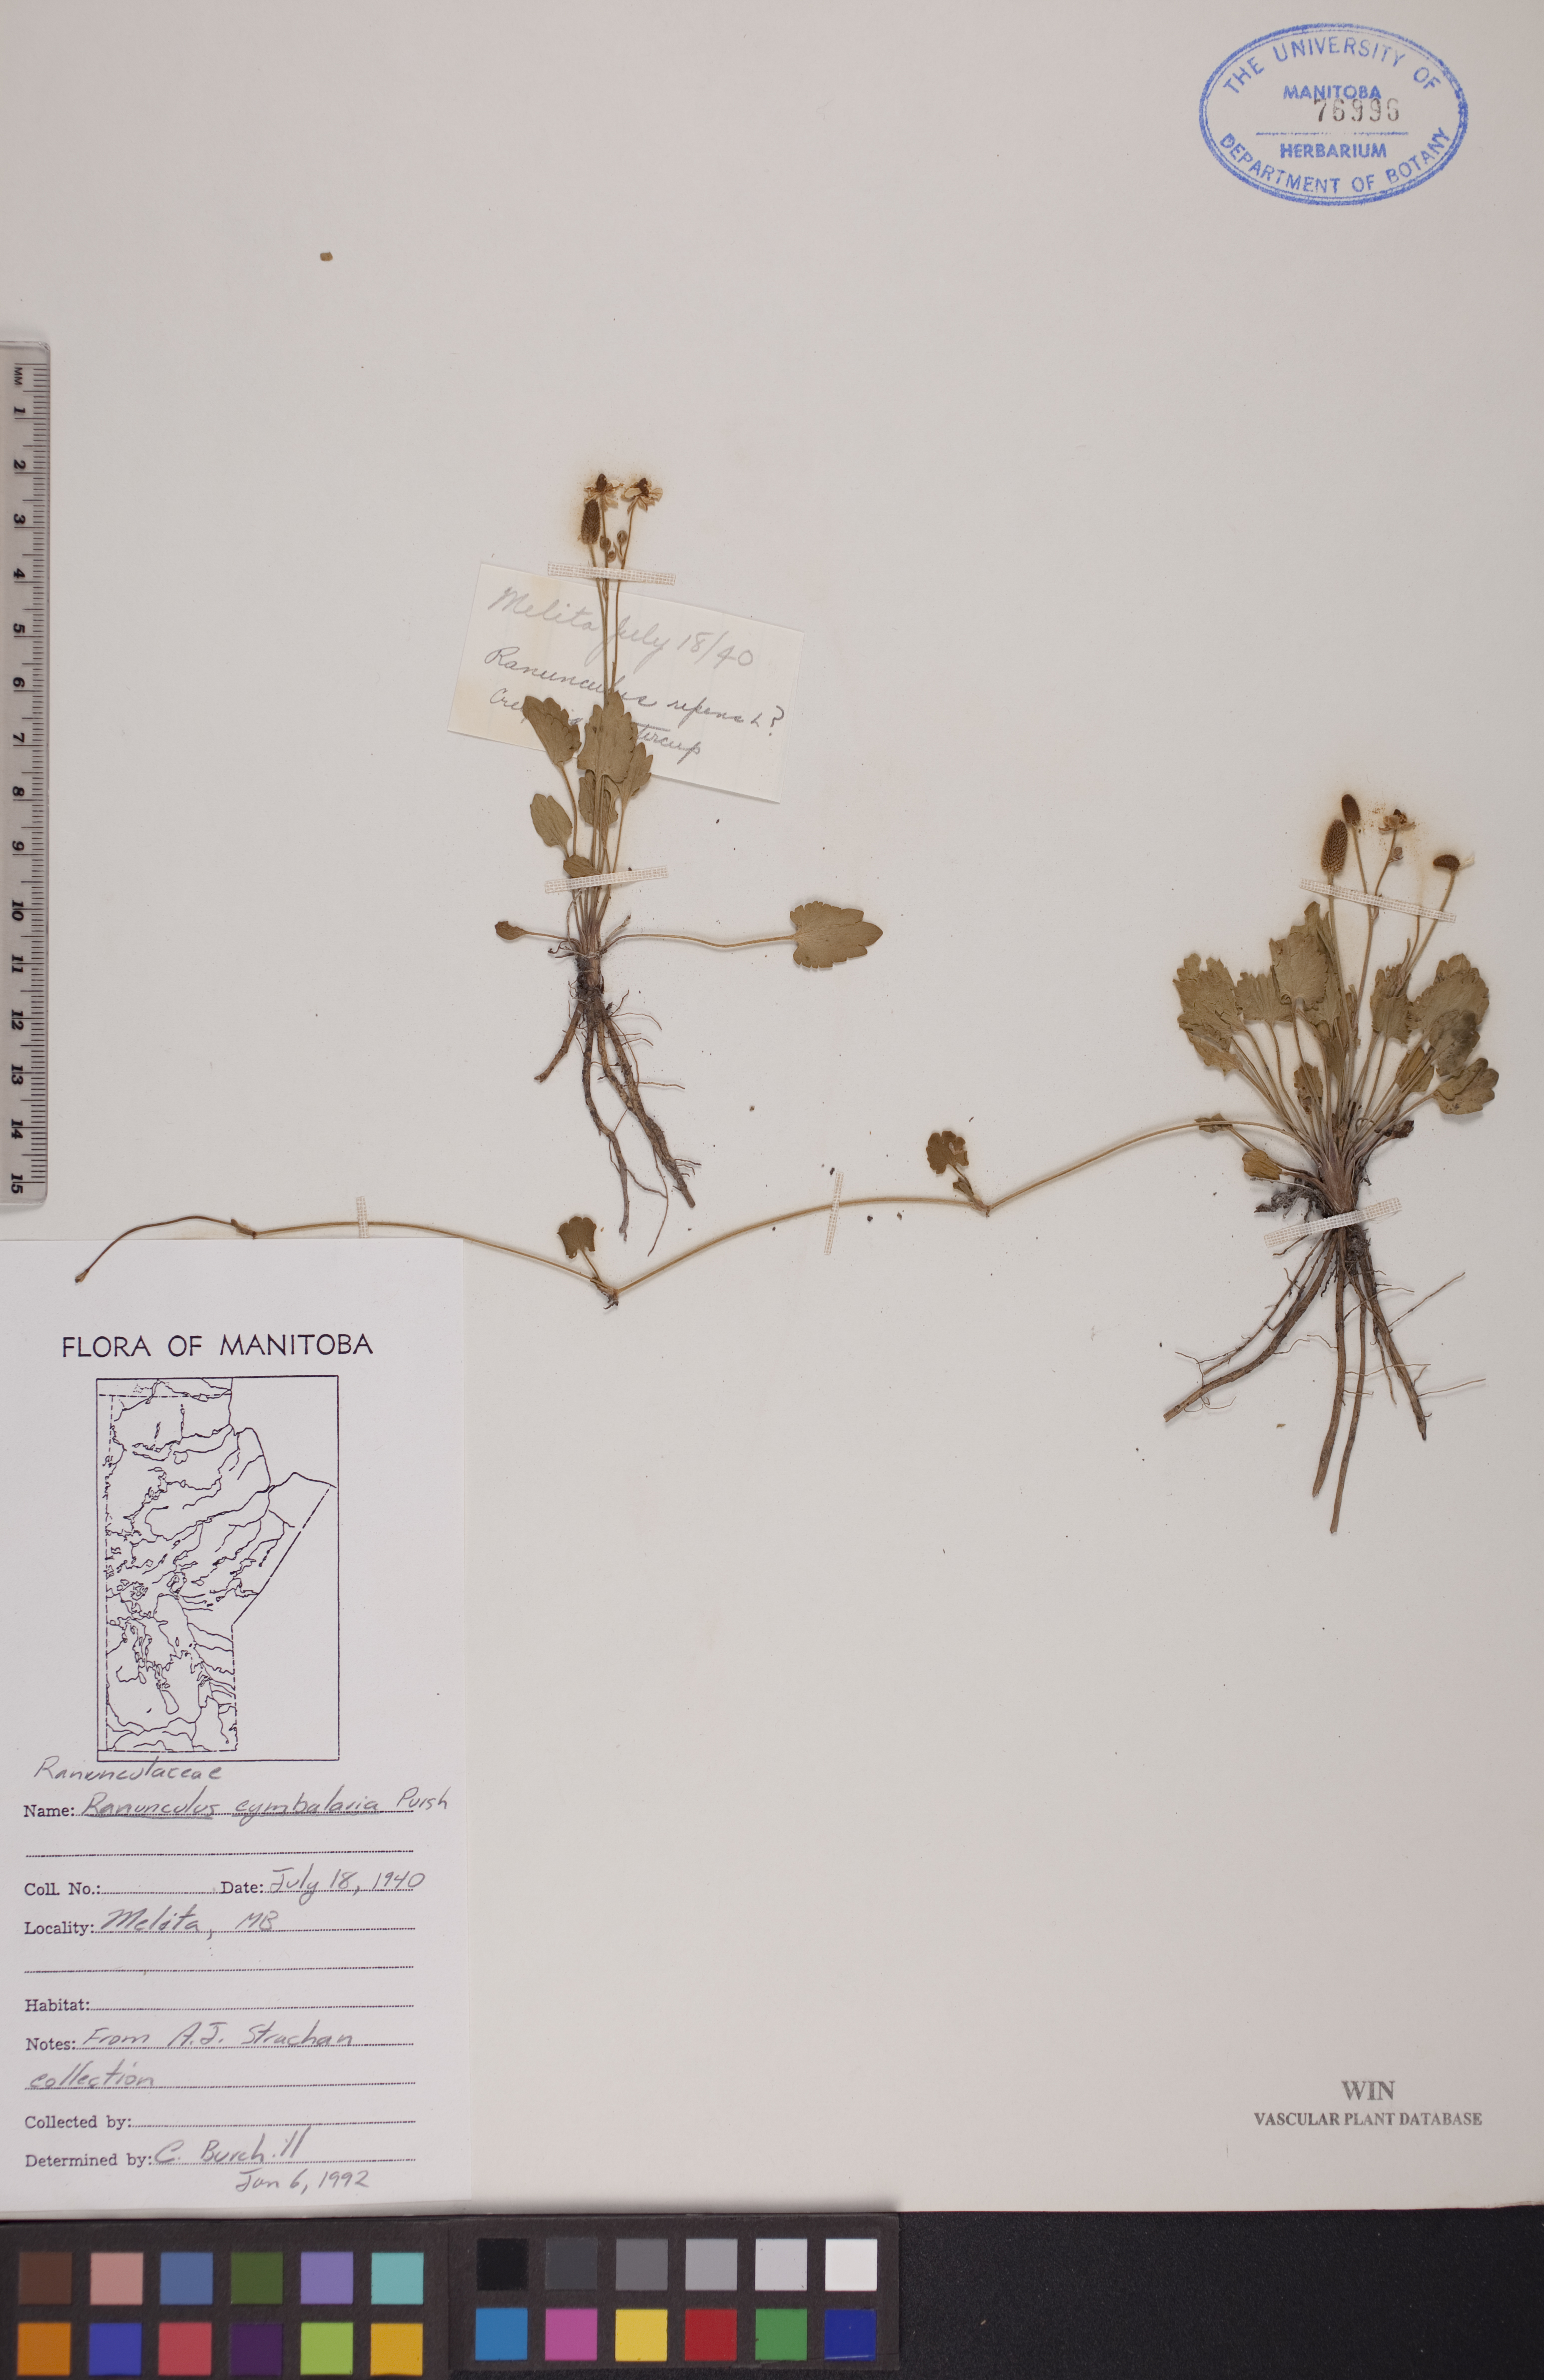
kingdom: Plantae
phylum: Tracheophyta
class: Magnoliopsida
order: Ranunculales
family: Ranunculaceae
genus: Halerpestes
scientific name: Halerpestes cymbalaria
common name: Seaside crowfoot
